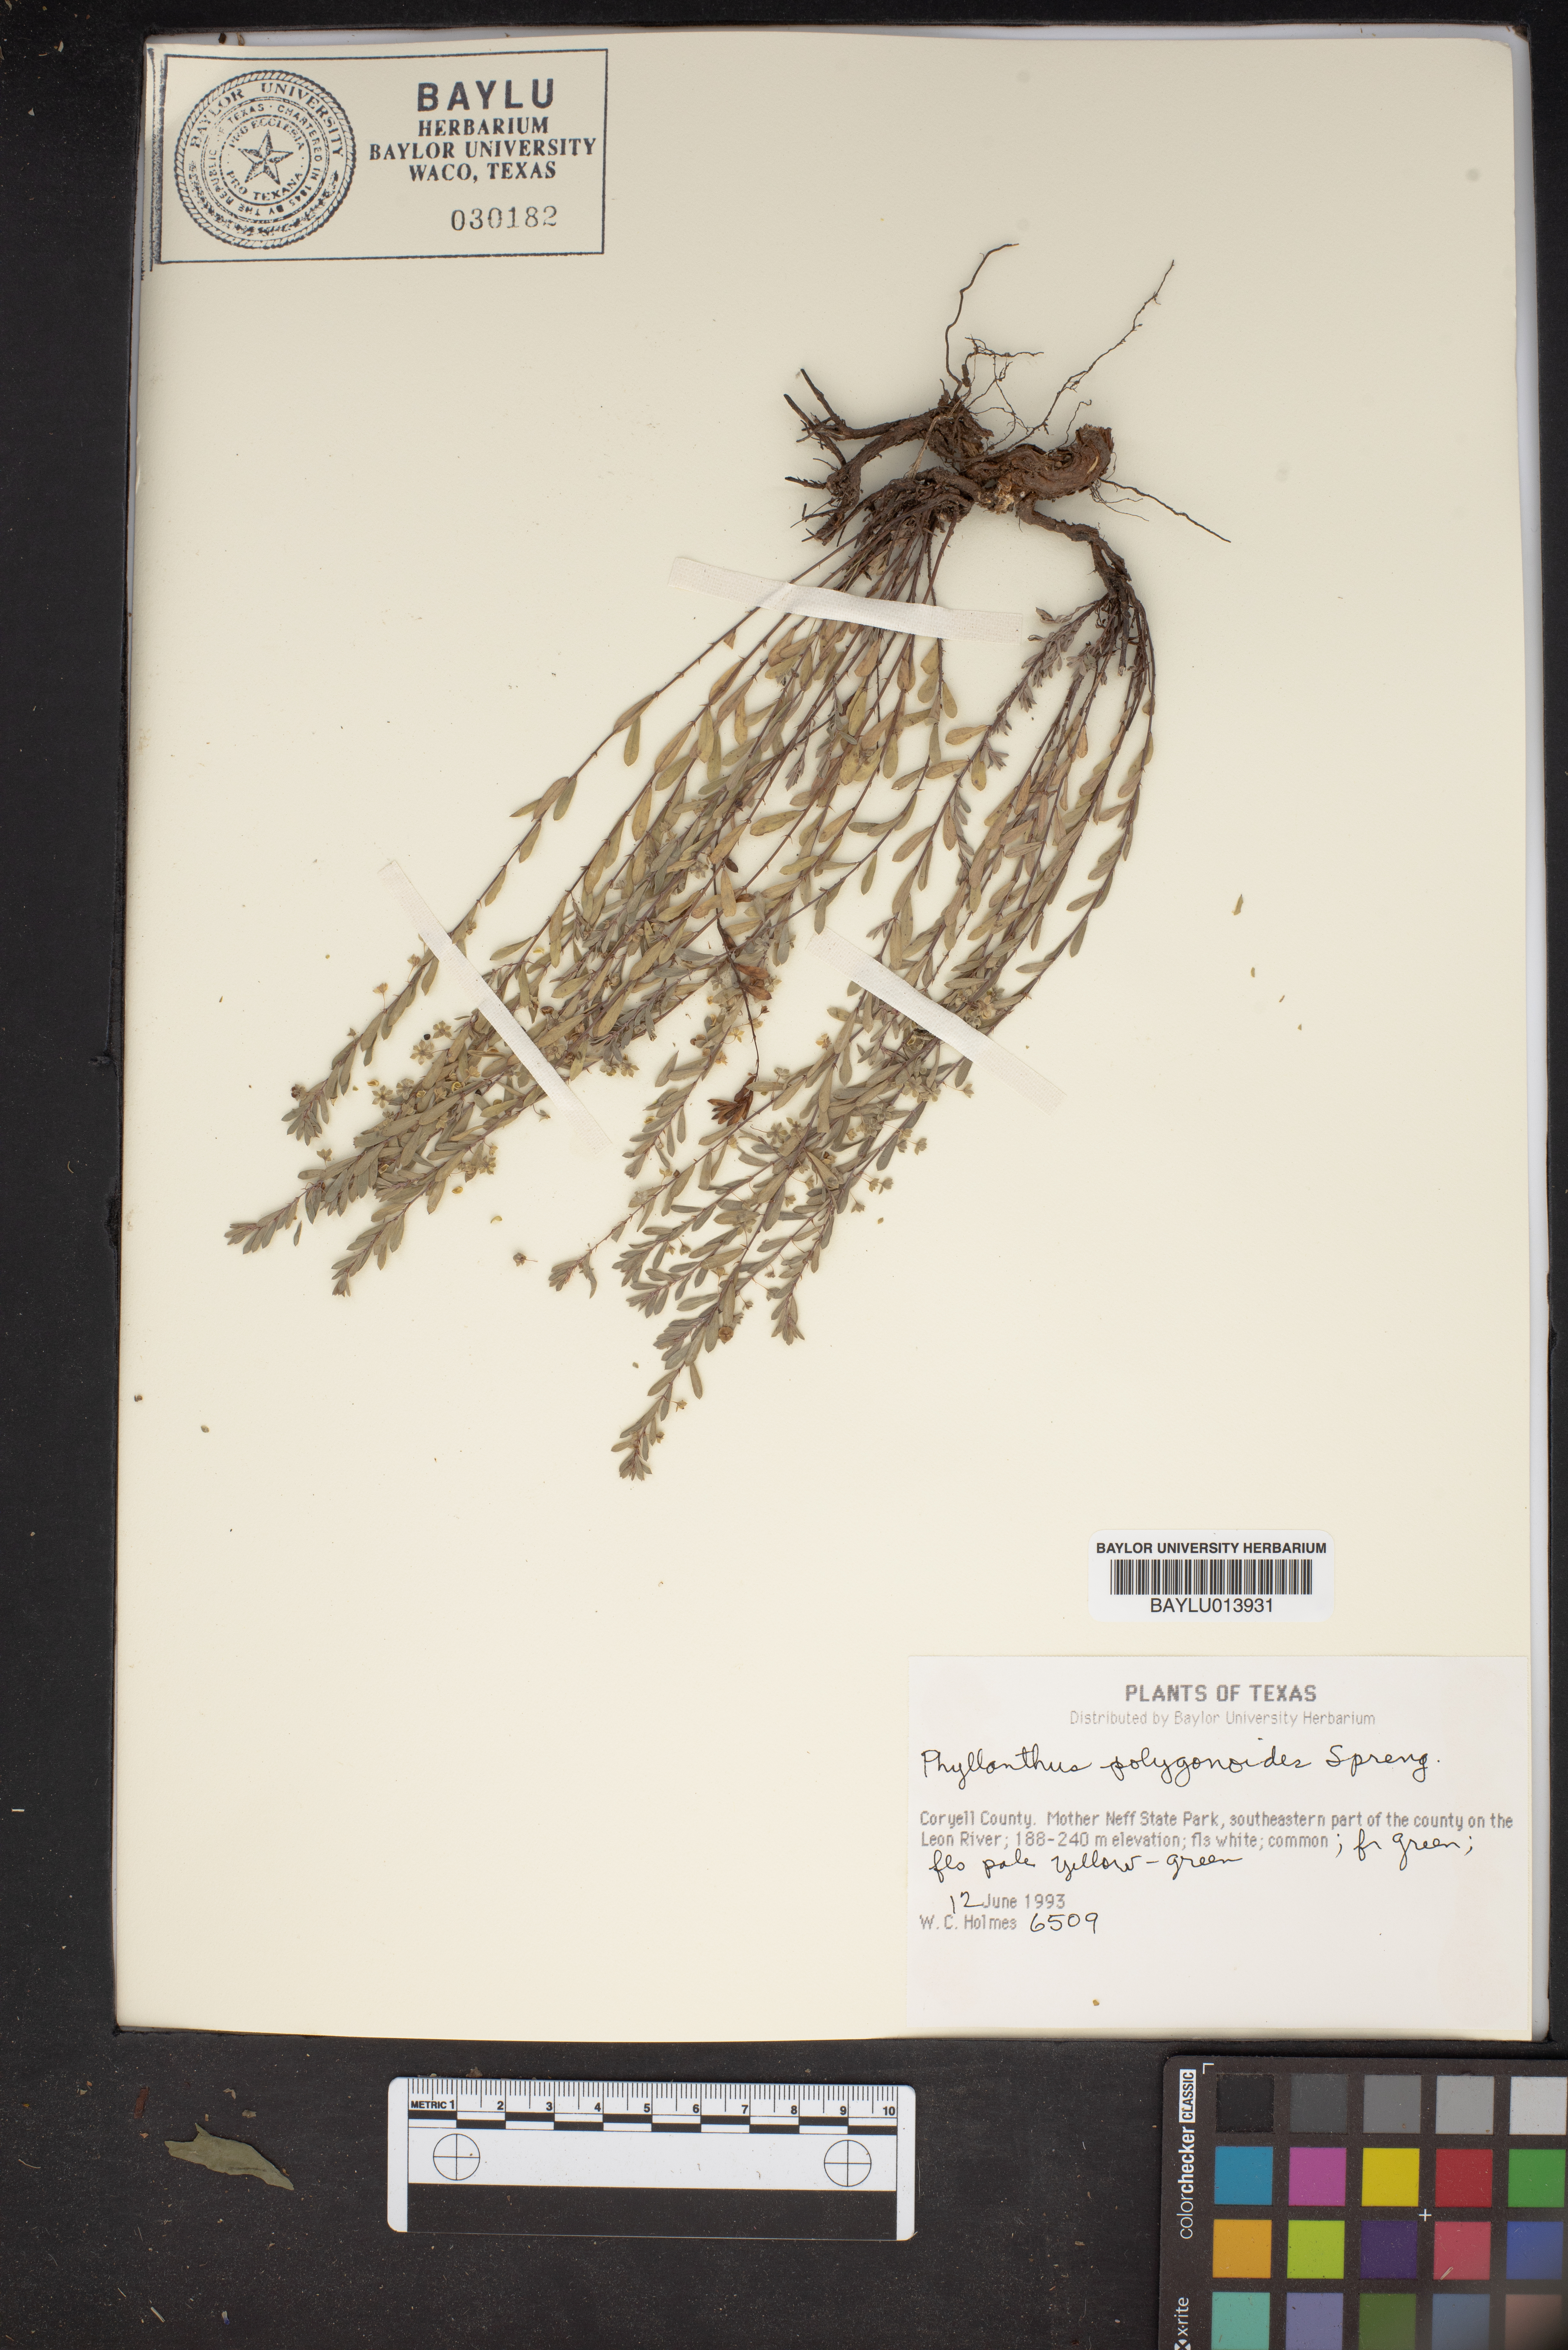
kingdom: Plantae
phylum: Tracheophyta
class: Magnoliopsida
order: Malpighiales
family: Phyllanthaceae
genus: Phyllanthus
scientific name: Phyllanthus polygonoides
